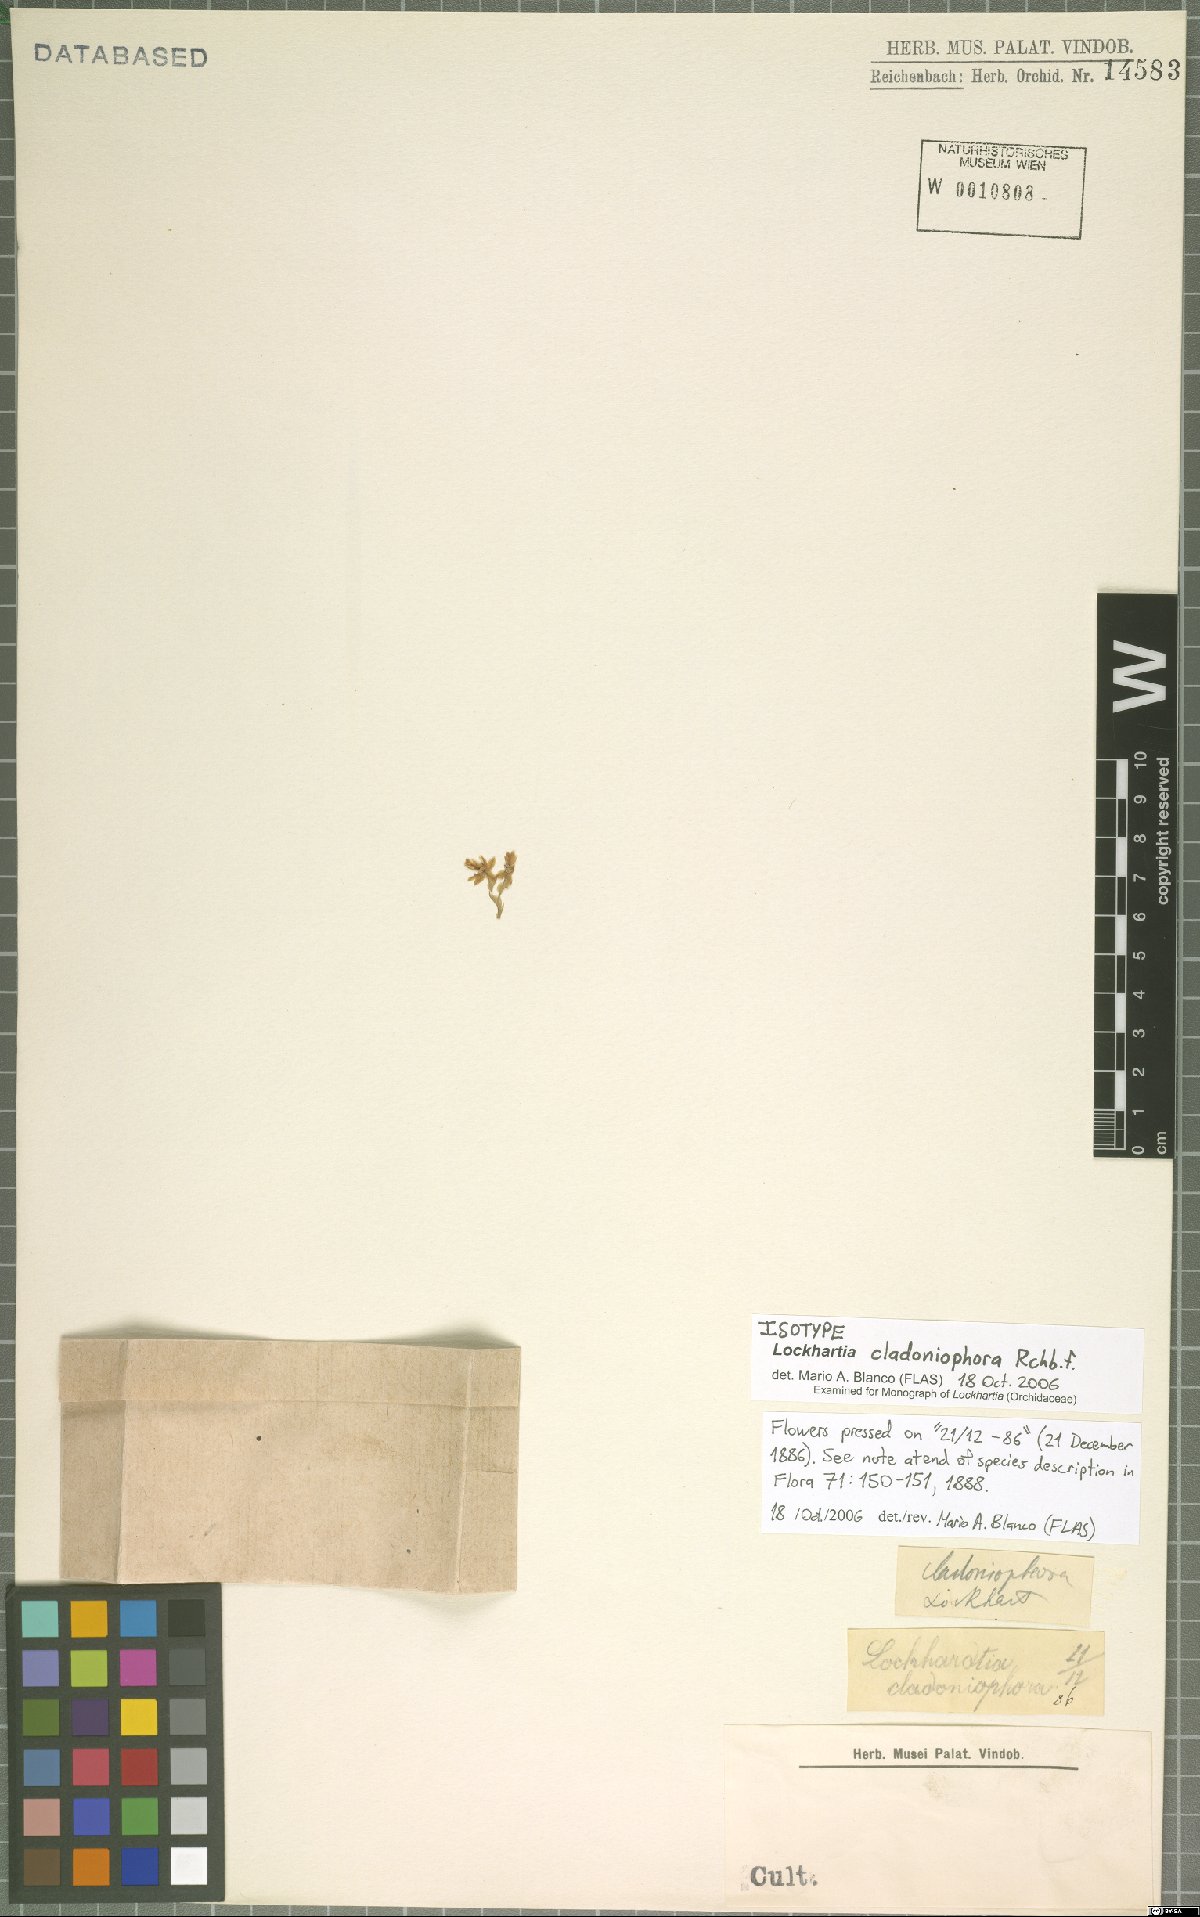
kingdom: Plantae
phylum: Tracheophyta
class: Liliopsida
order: Asparagales
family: Orchidaceae
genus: Lockhartia
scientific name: Lockhartia cladoniophora
